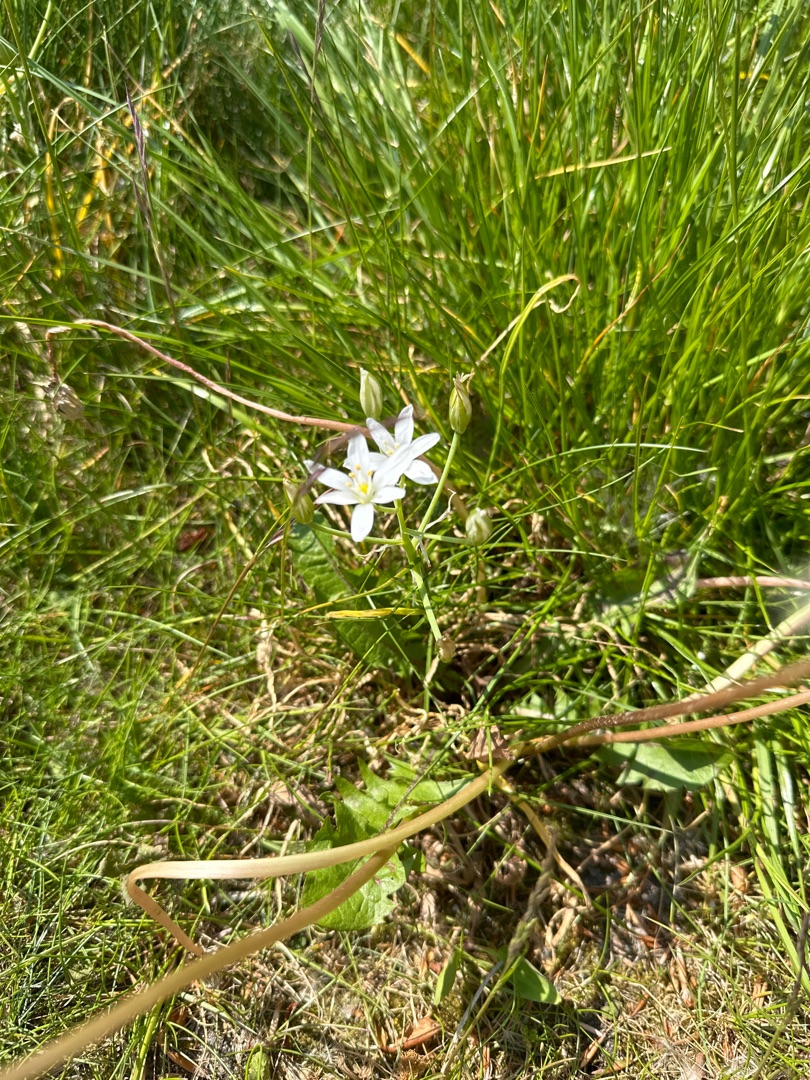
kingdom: Plantae
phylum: Tracheophyta
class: Liliopsida
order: Asparagales
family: Asparagaceae
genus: Ornithogalum
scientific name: Ornithogalum umbellatum
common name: Kost-fuglemælk
